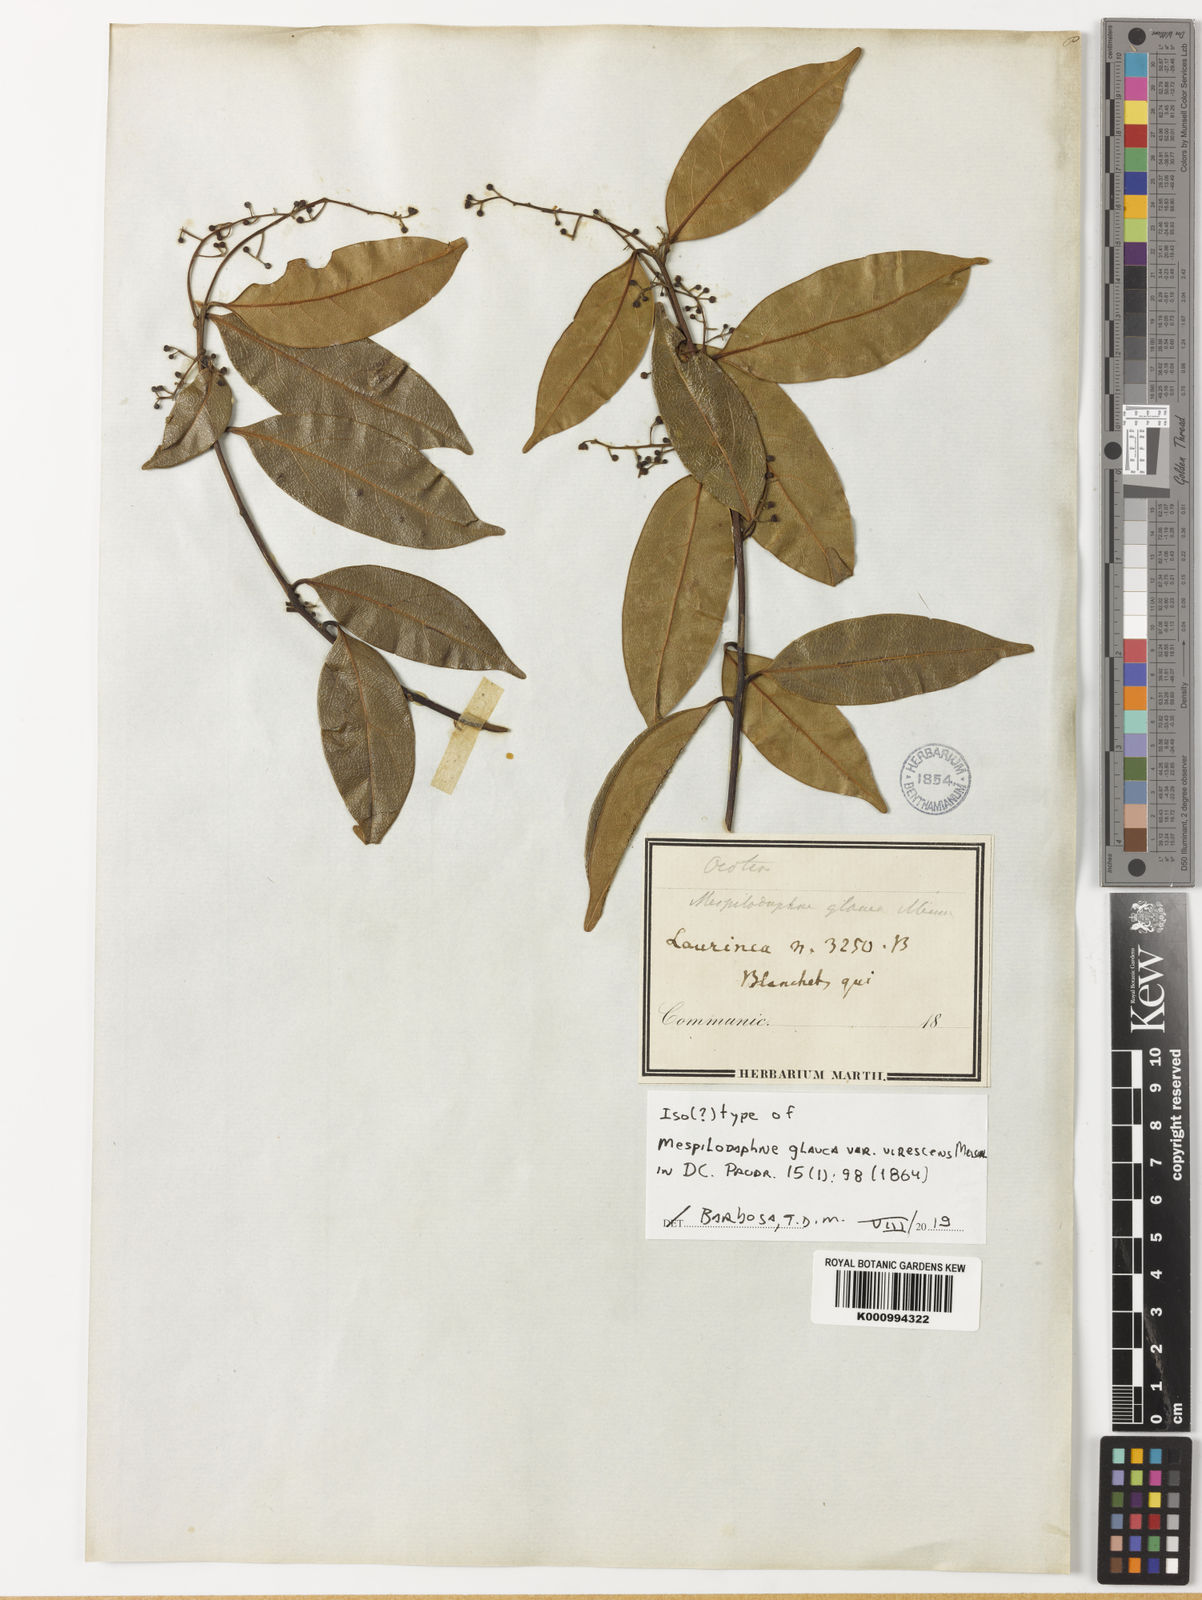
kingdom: Plantae
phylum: Tracheophyta
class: Magnoliopsida
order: Laurales
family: Lauraceae
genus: Mespilodaphne
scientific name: Mespilodaphne glauca
